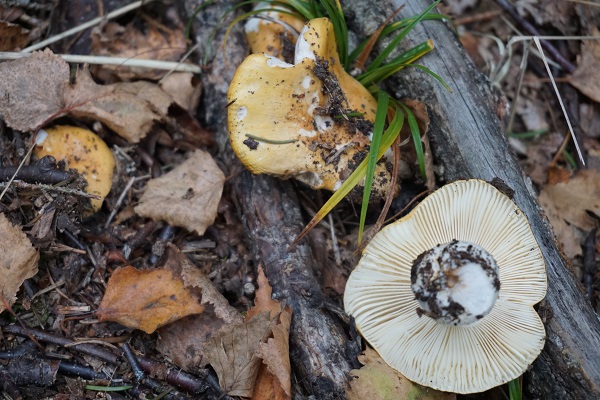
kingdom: Fungi
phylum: Basidiomycota
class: Agaricomycetes
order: Russulales
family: Russulaceae
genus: Russula
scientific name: Russula ochroleuca
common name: okkergul skørhat
